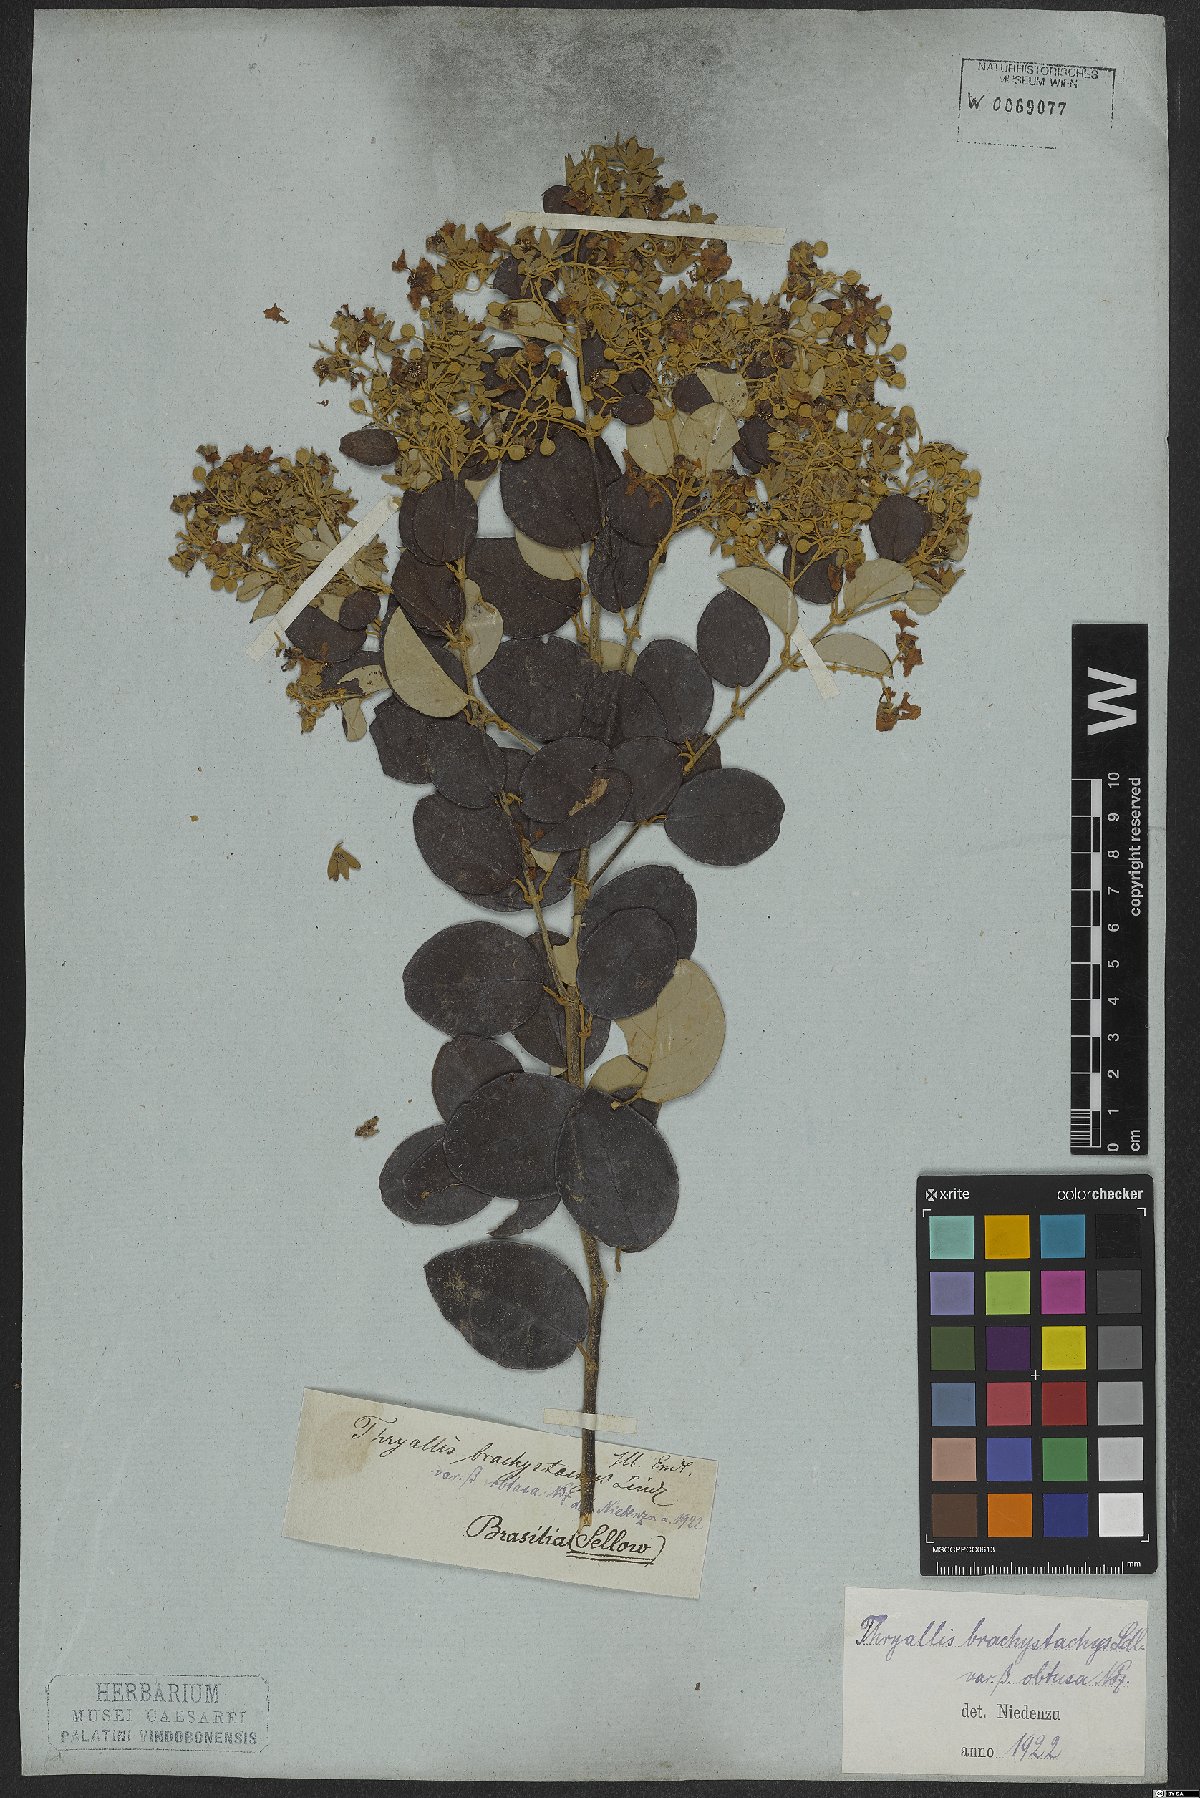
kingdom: Plantae
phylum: Tracheophyta
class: Magnoliopsida
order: Malpighiales
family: Malpighiaceae
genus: Thryallis
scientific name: Thryallis laburnum
